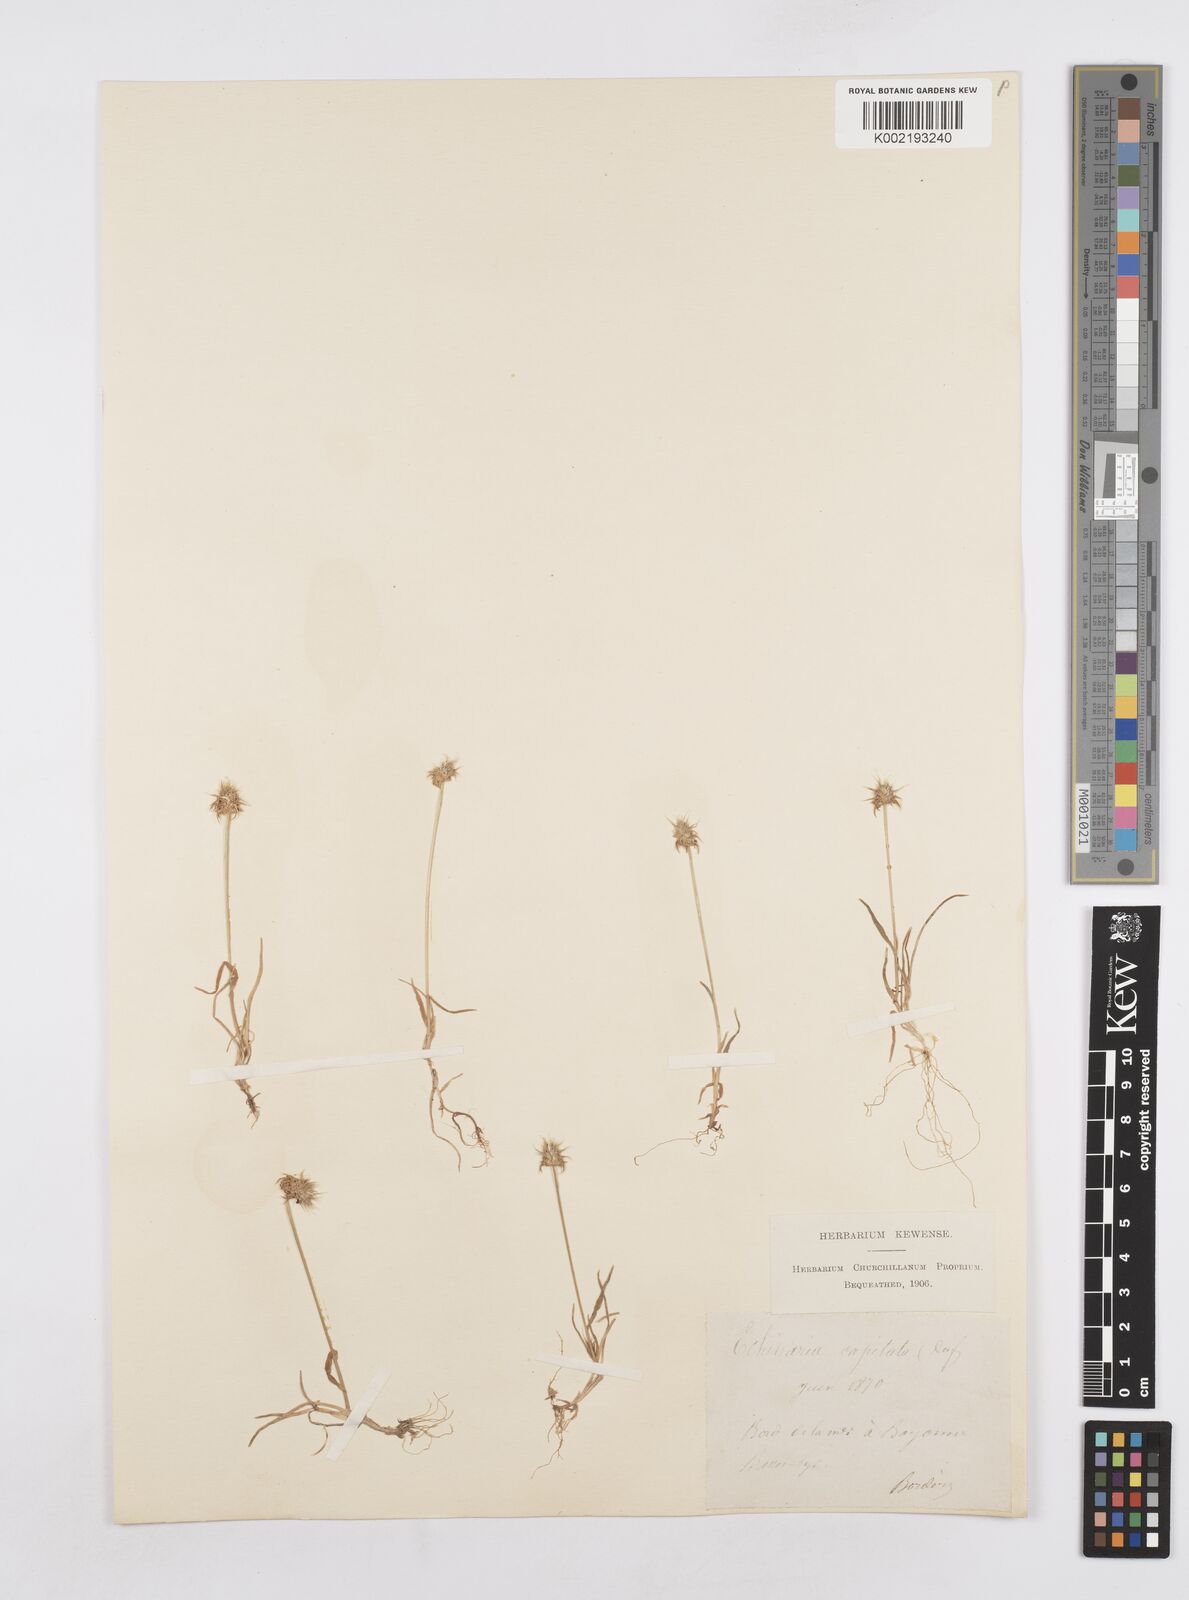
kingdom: Plantae
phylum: Tracheophyta
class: Liliopsida
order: Poales
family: Poaceae
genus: Echinaria
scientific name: Echinaria capitata
